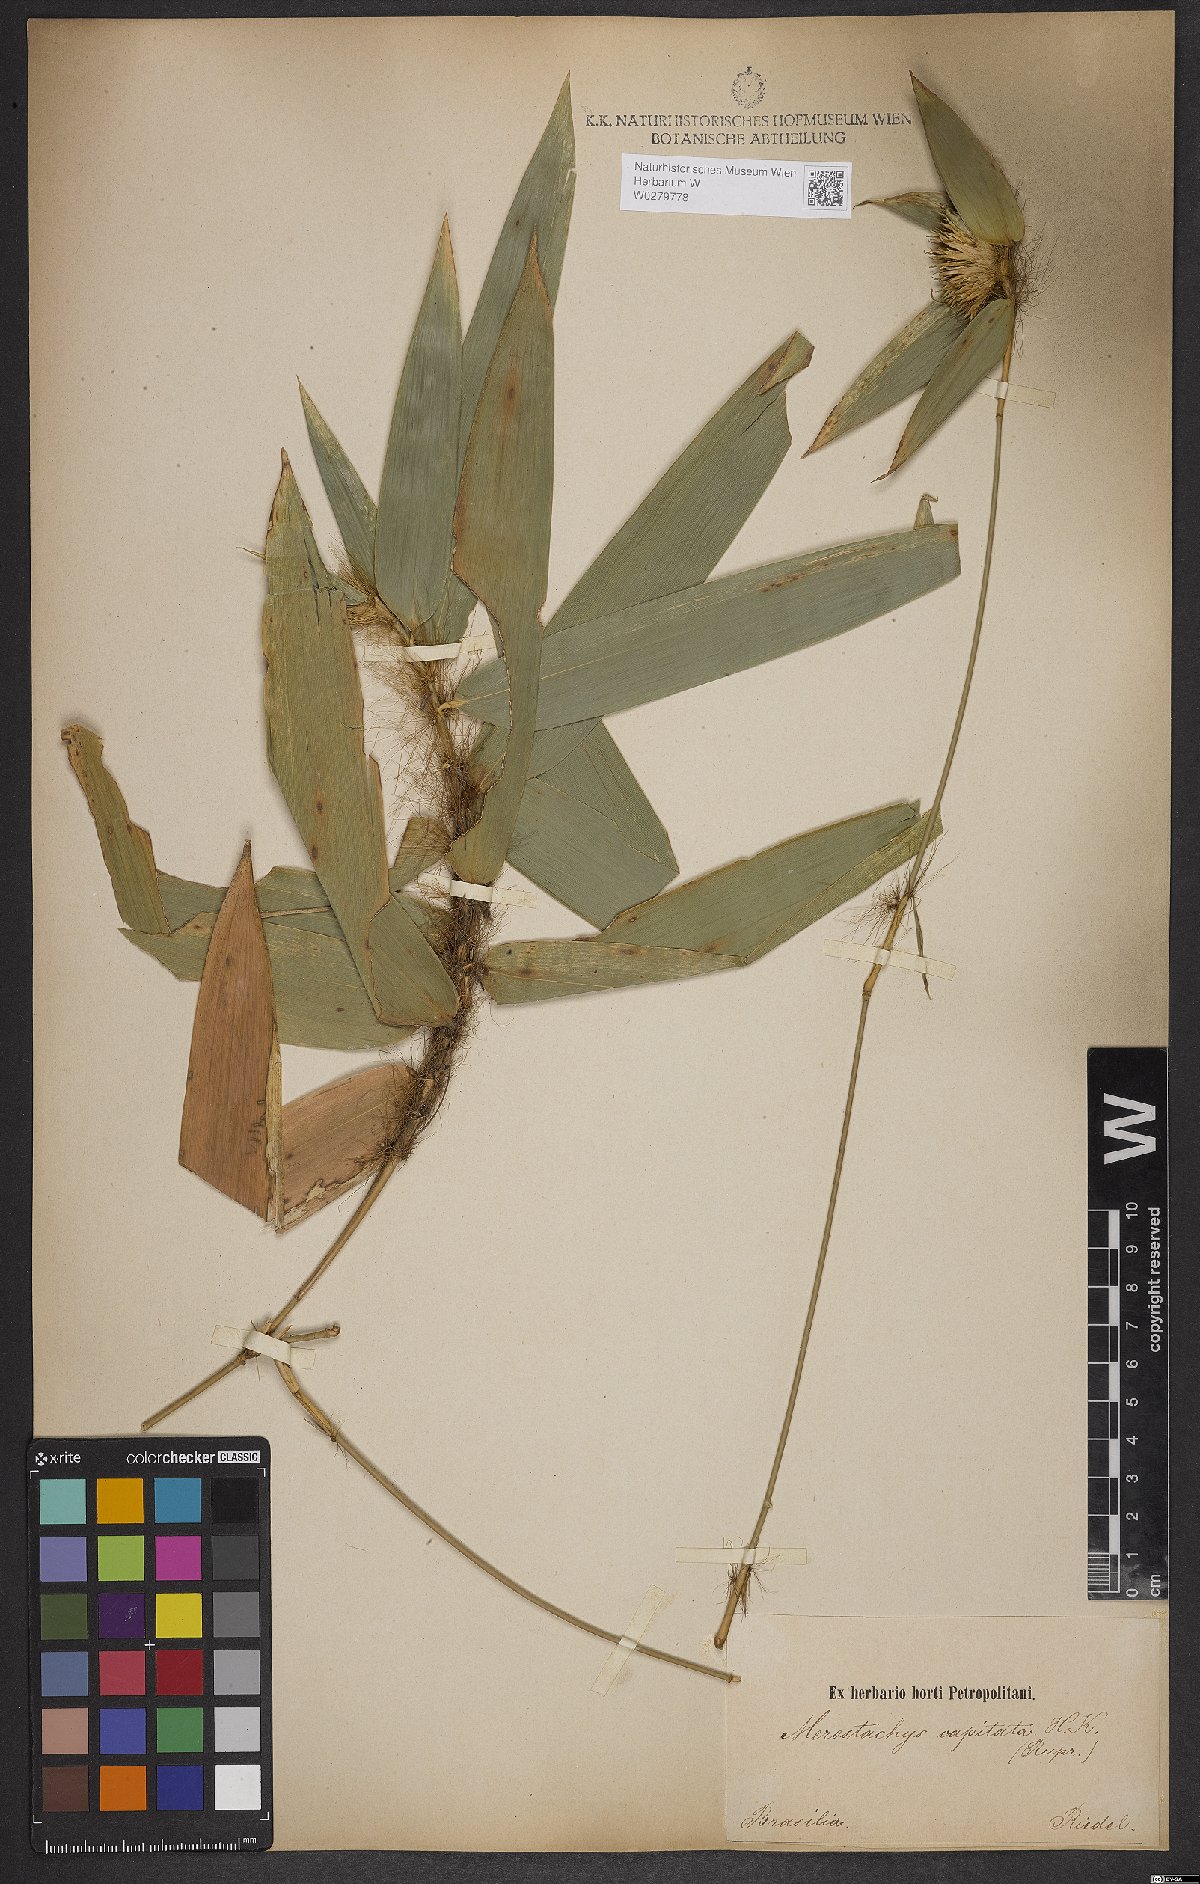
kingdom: Plantae
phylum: Tracheophyta
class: Liliopsida
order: Poales
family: Poaceae
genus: Athroostachys
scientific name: Athroostachys capitata
